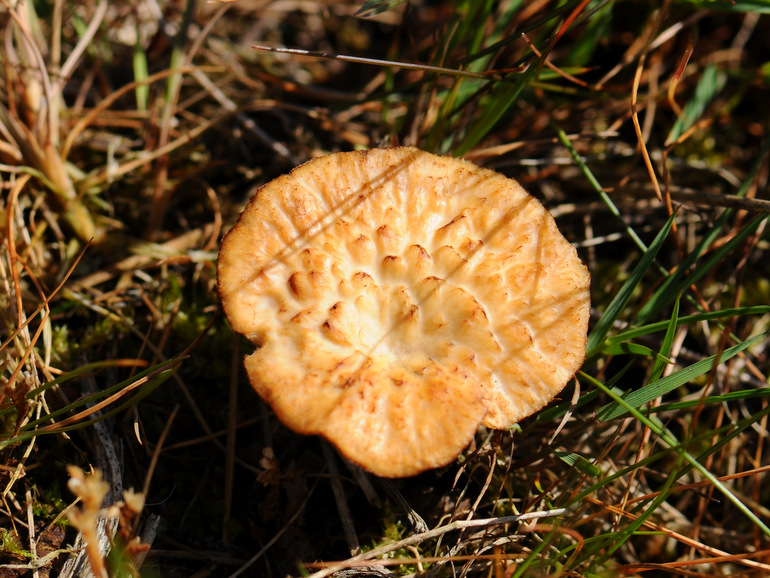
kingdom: Fungi
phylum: Basidiomycota
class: Agaricomycetes
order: Polyporales
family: Polyporaceae
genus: Polyporus
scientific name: Polyporus tuberaster
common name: knoldet stilkporesvamp
